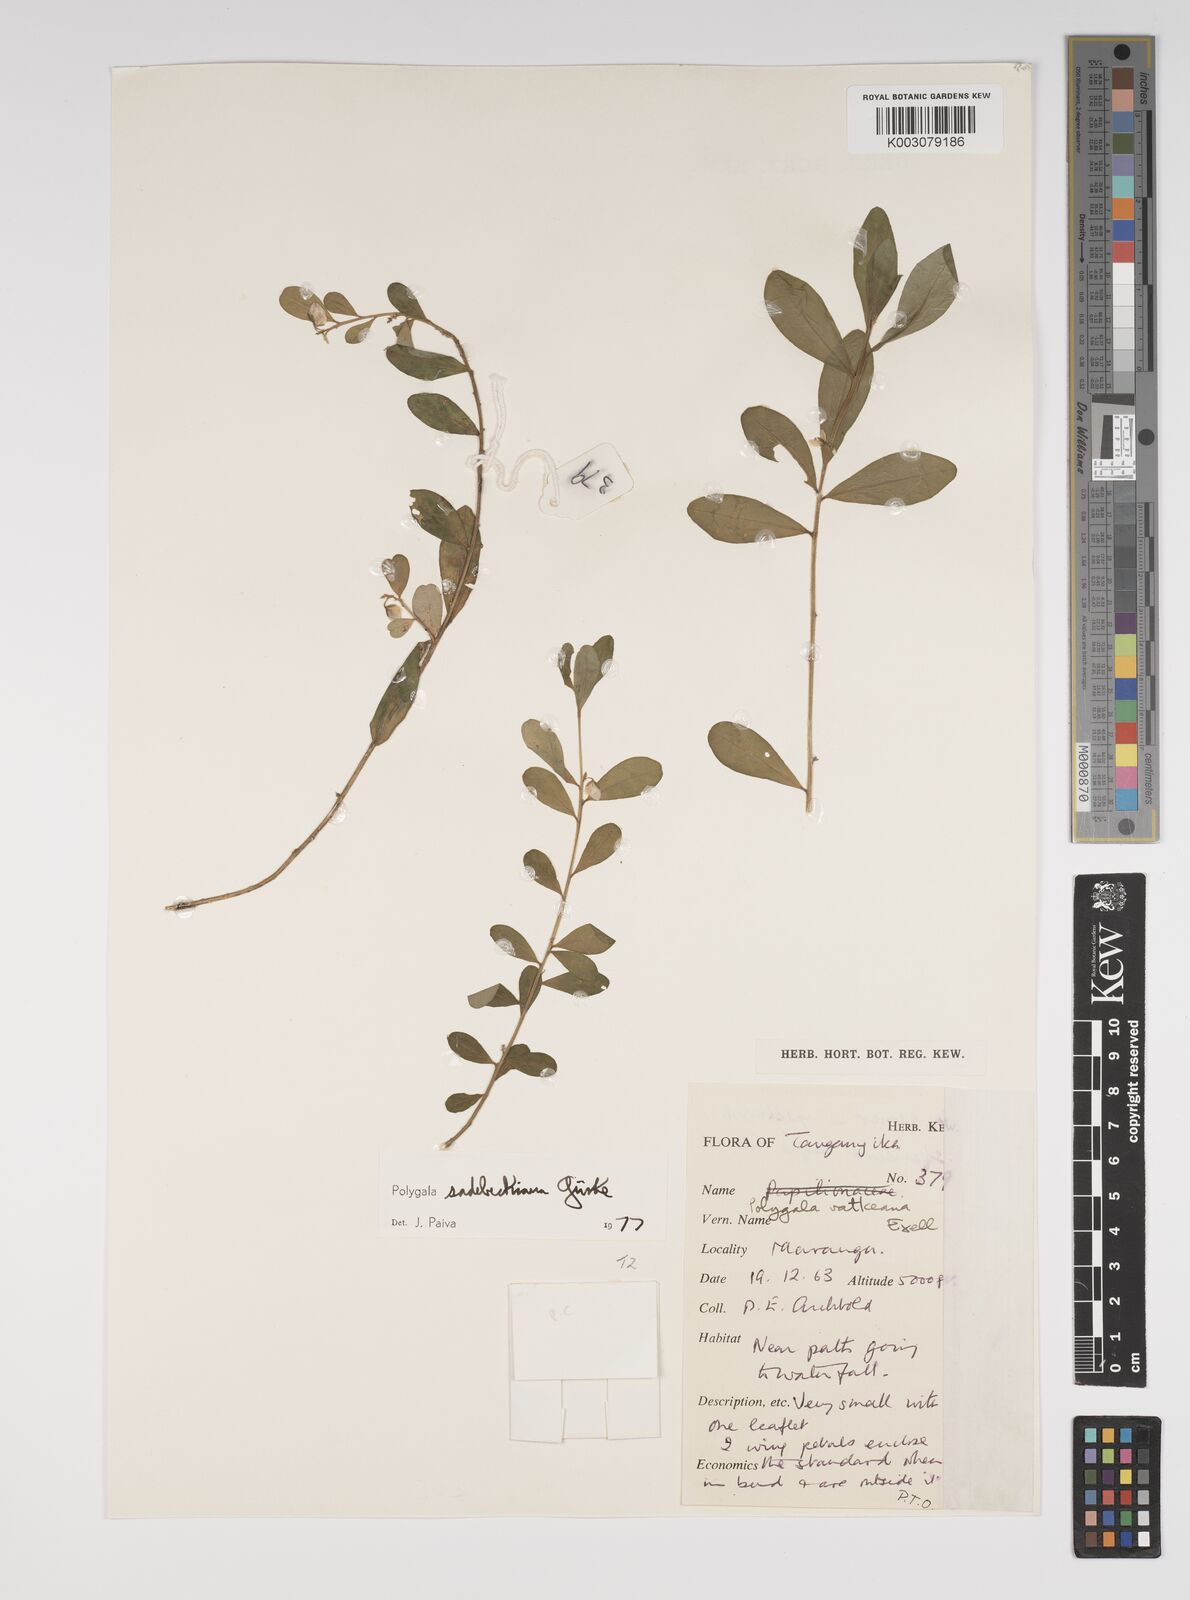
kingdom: Plantae
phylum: Tracheophyta
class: Magnoliopsida
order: Fabales
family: Polygalaceae
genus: Polygala
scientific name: Polygala sadebeckiana
